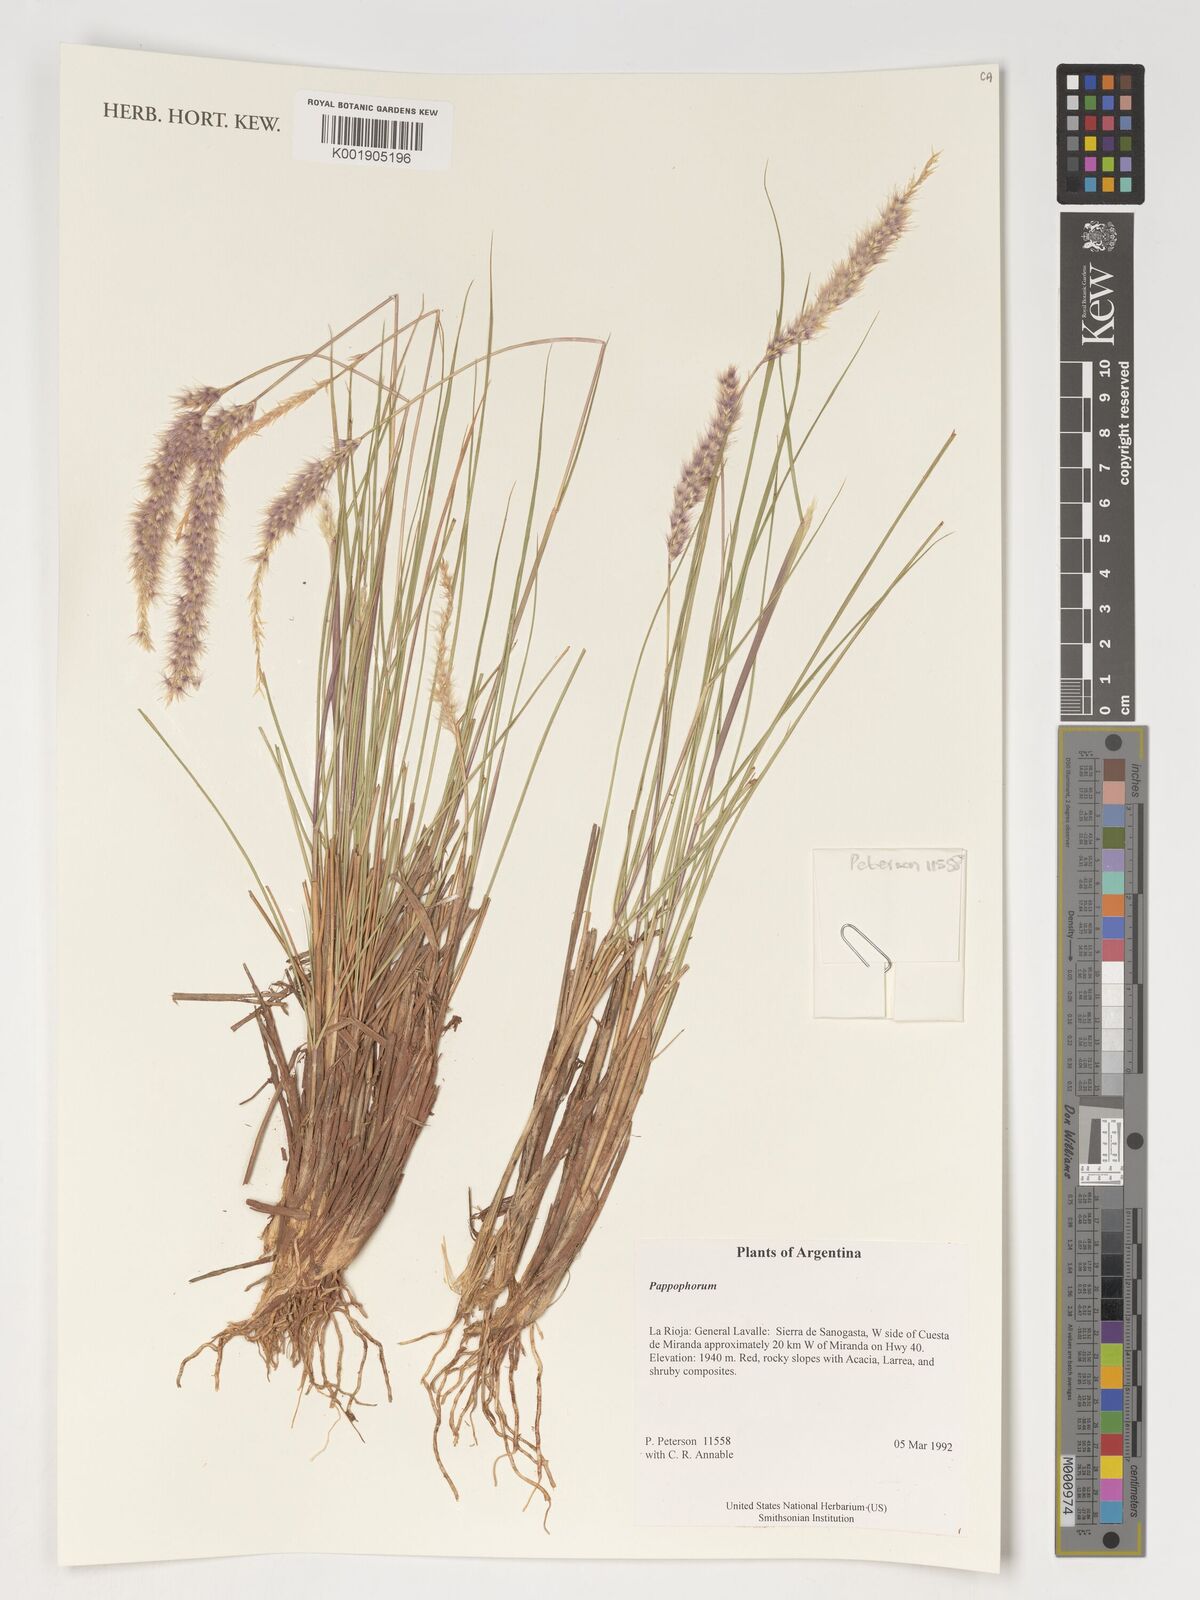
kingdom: Plantae
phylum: Tracheophyta
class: Liliopsida
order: Poales
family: Poaceae
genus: Pappophorum
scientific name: Pappophorum
